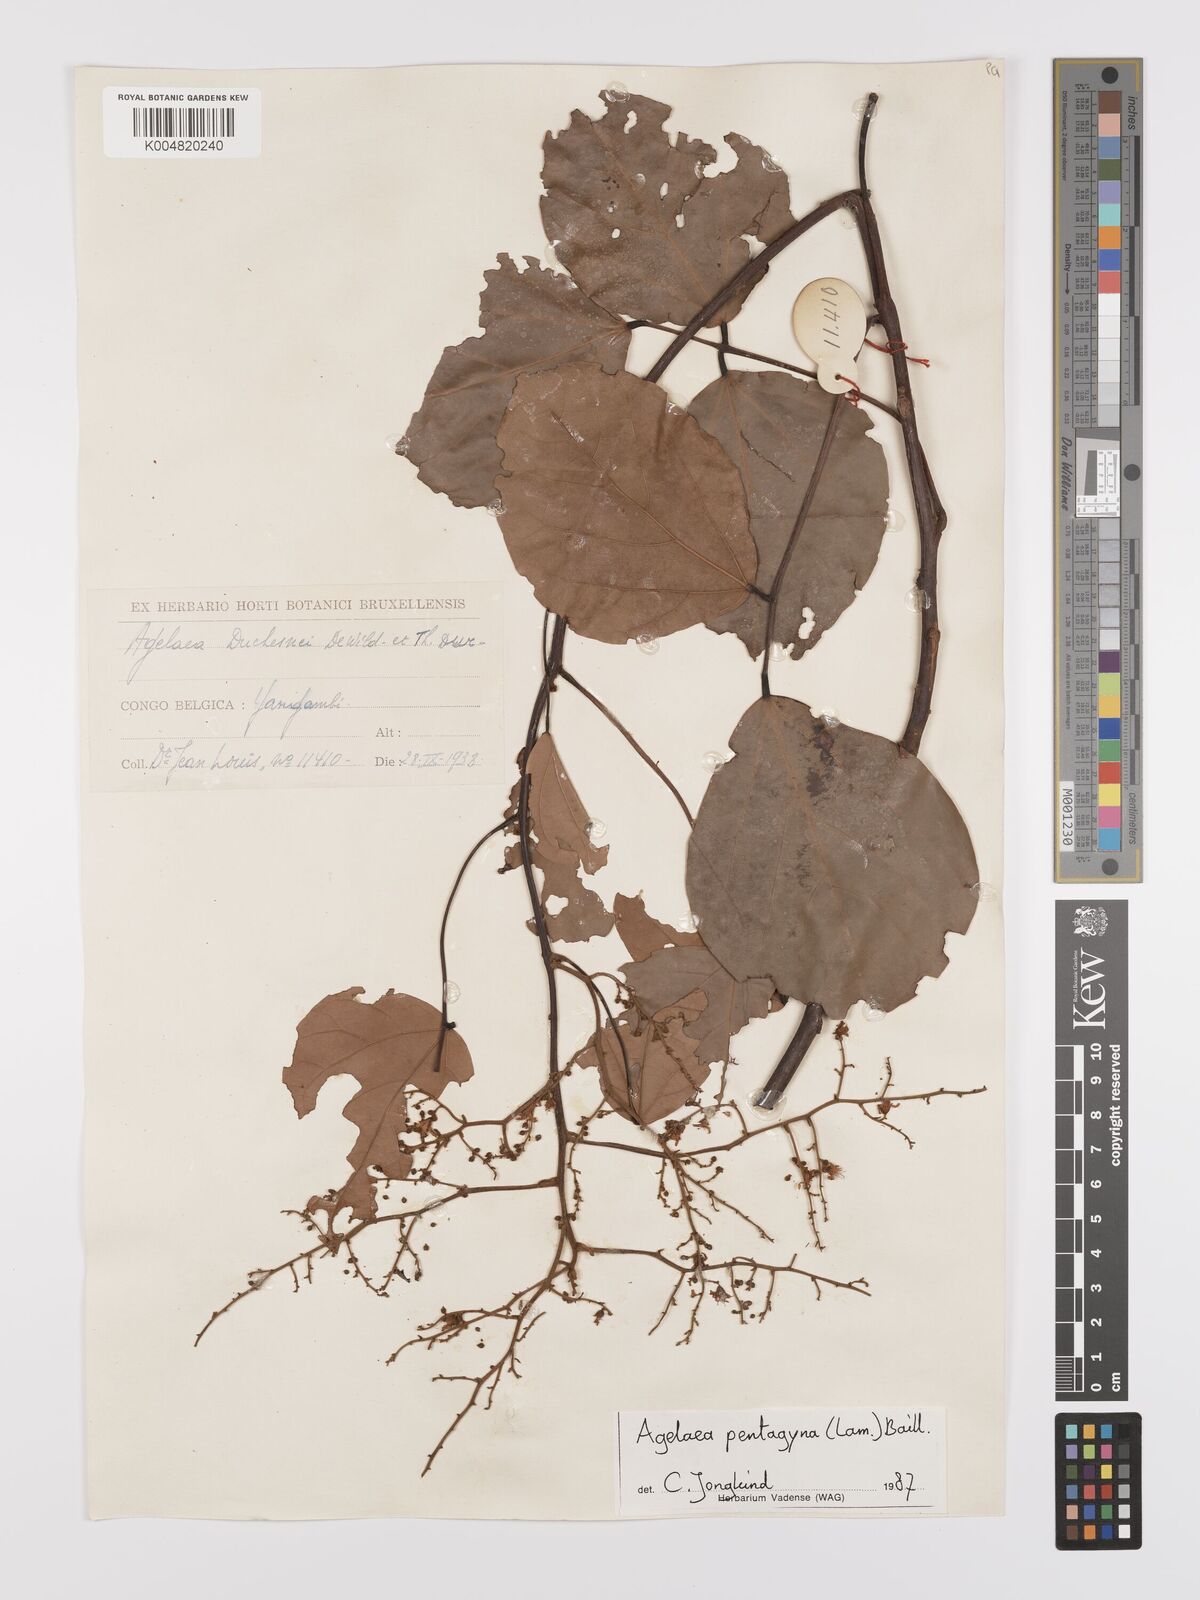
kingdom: Plantae
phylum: Tracheophyta
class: Magnoliopsida
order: Oxalidales
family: Connaraceae
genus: Agelaea
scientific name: Agelaea pentagyna
